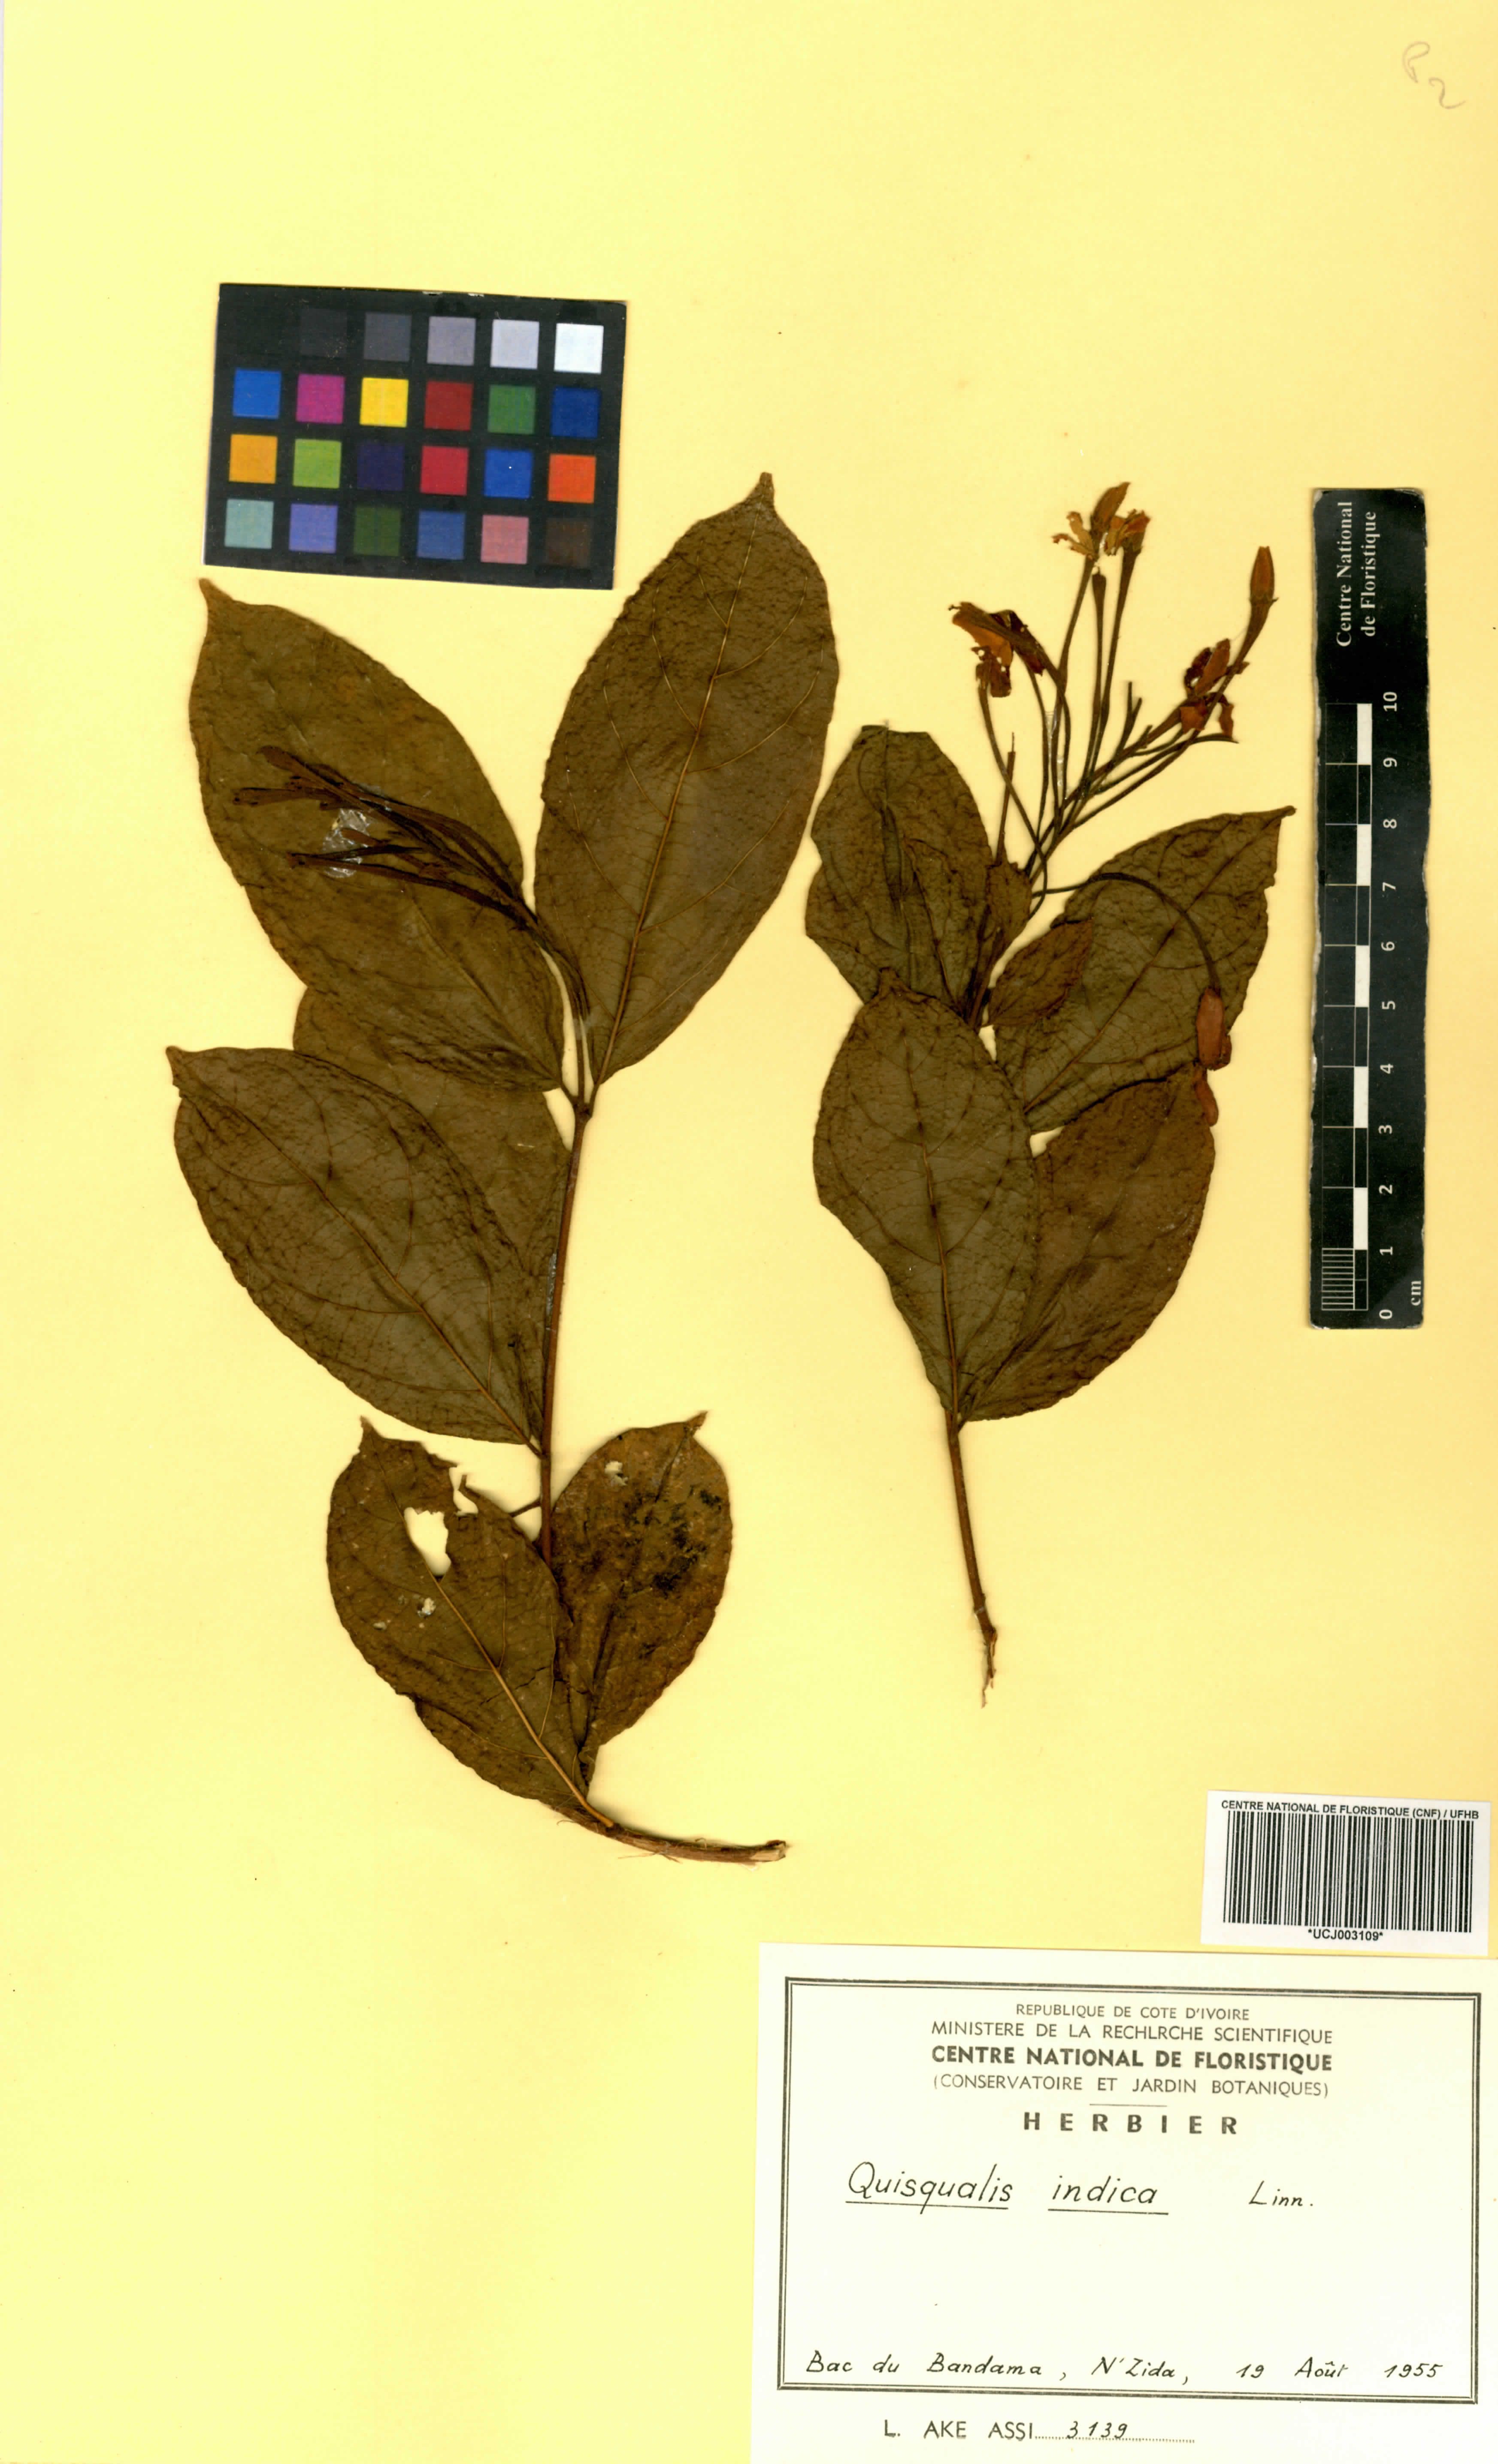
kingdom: Plantae
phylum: Tracheophyta
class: Magnoliopsida
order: Myrtales
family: Combretaceae
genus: Combretum
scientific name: Combretum indicum
